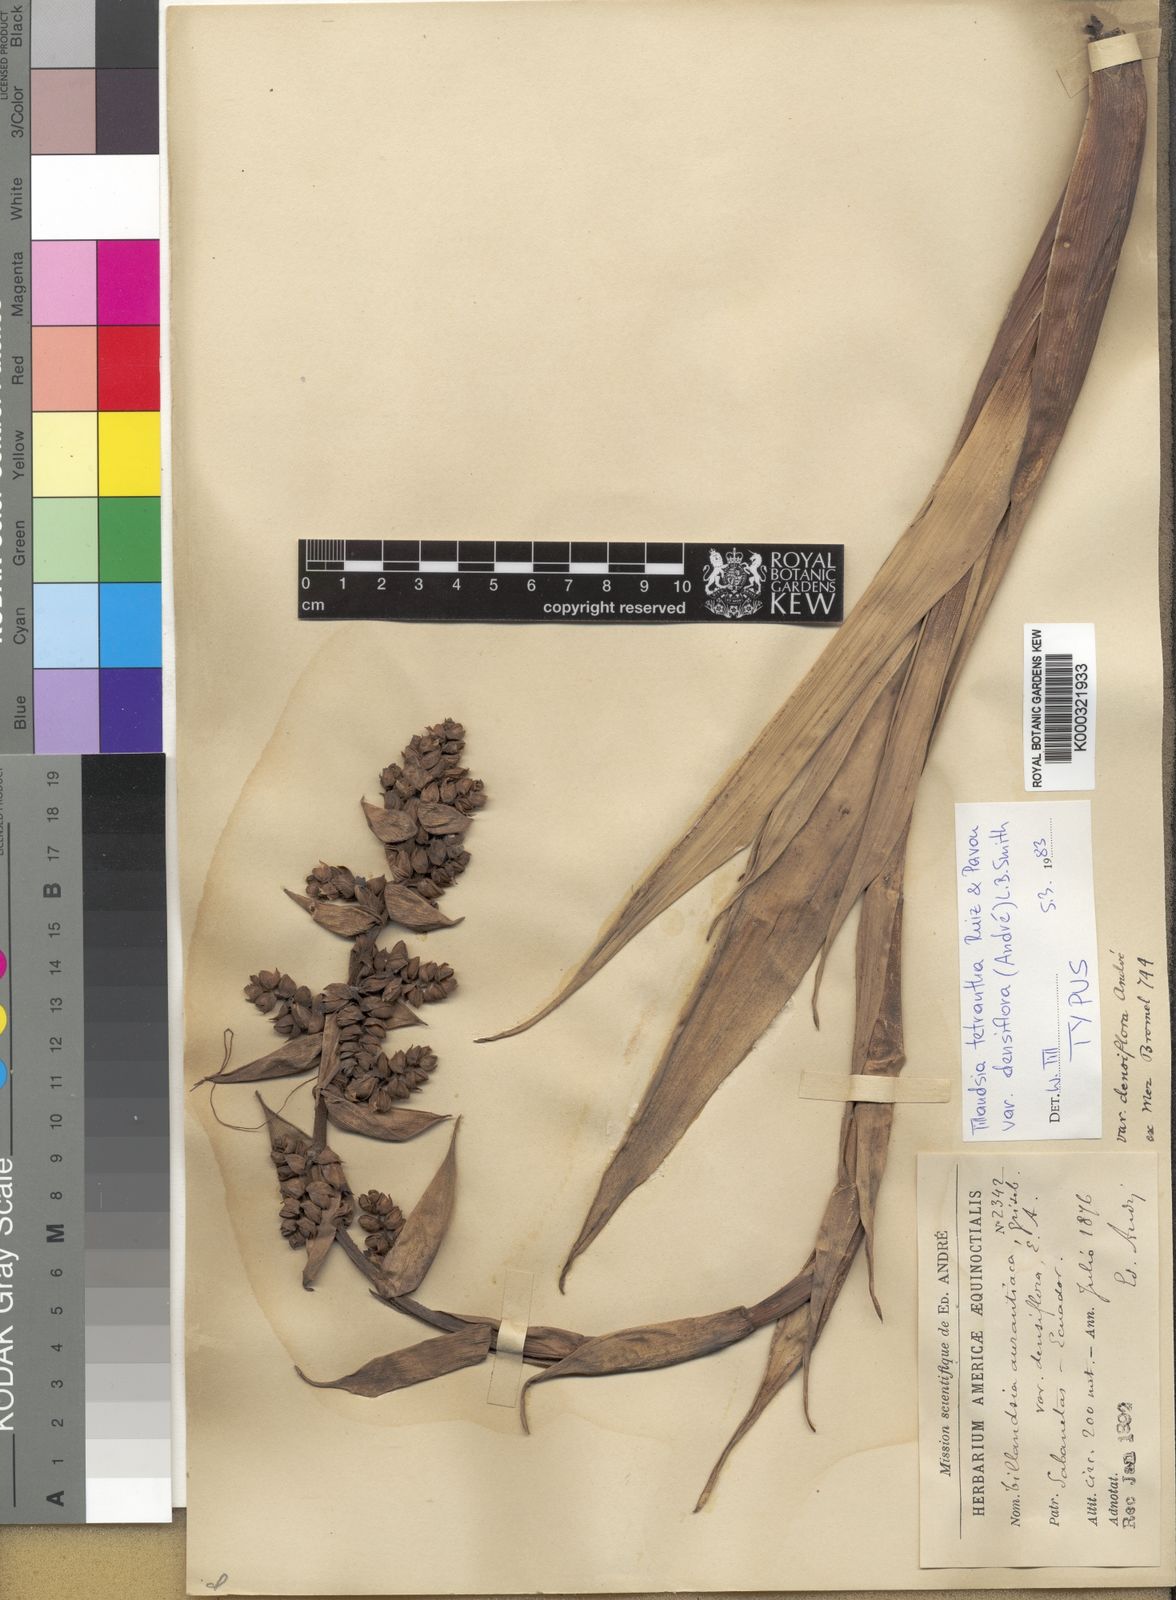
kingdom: Plantae
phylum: Tracheophyta
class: Liliopsida
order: Poales
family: Bromeliaceae
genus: Tillandsia
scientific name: Tillandsia
